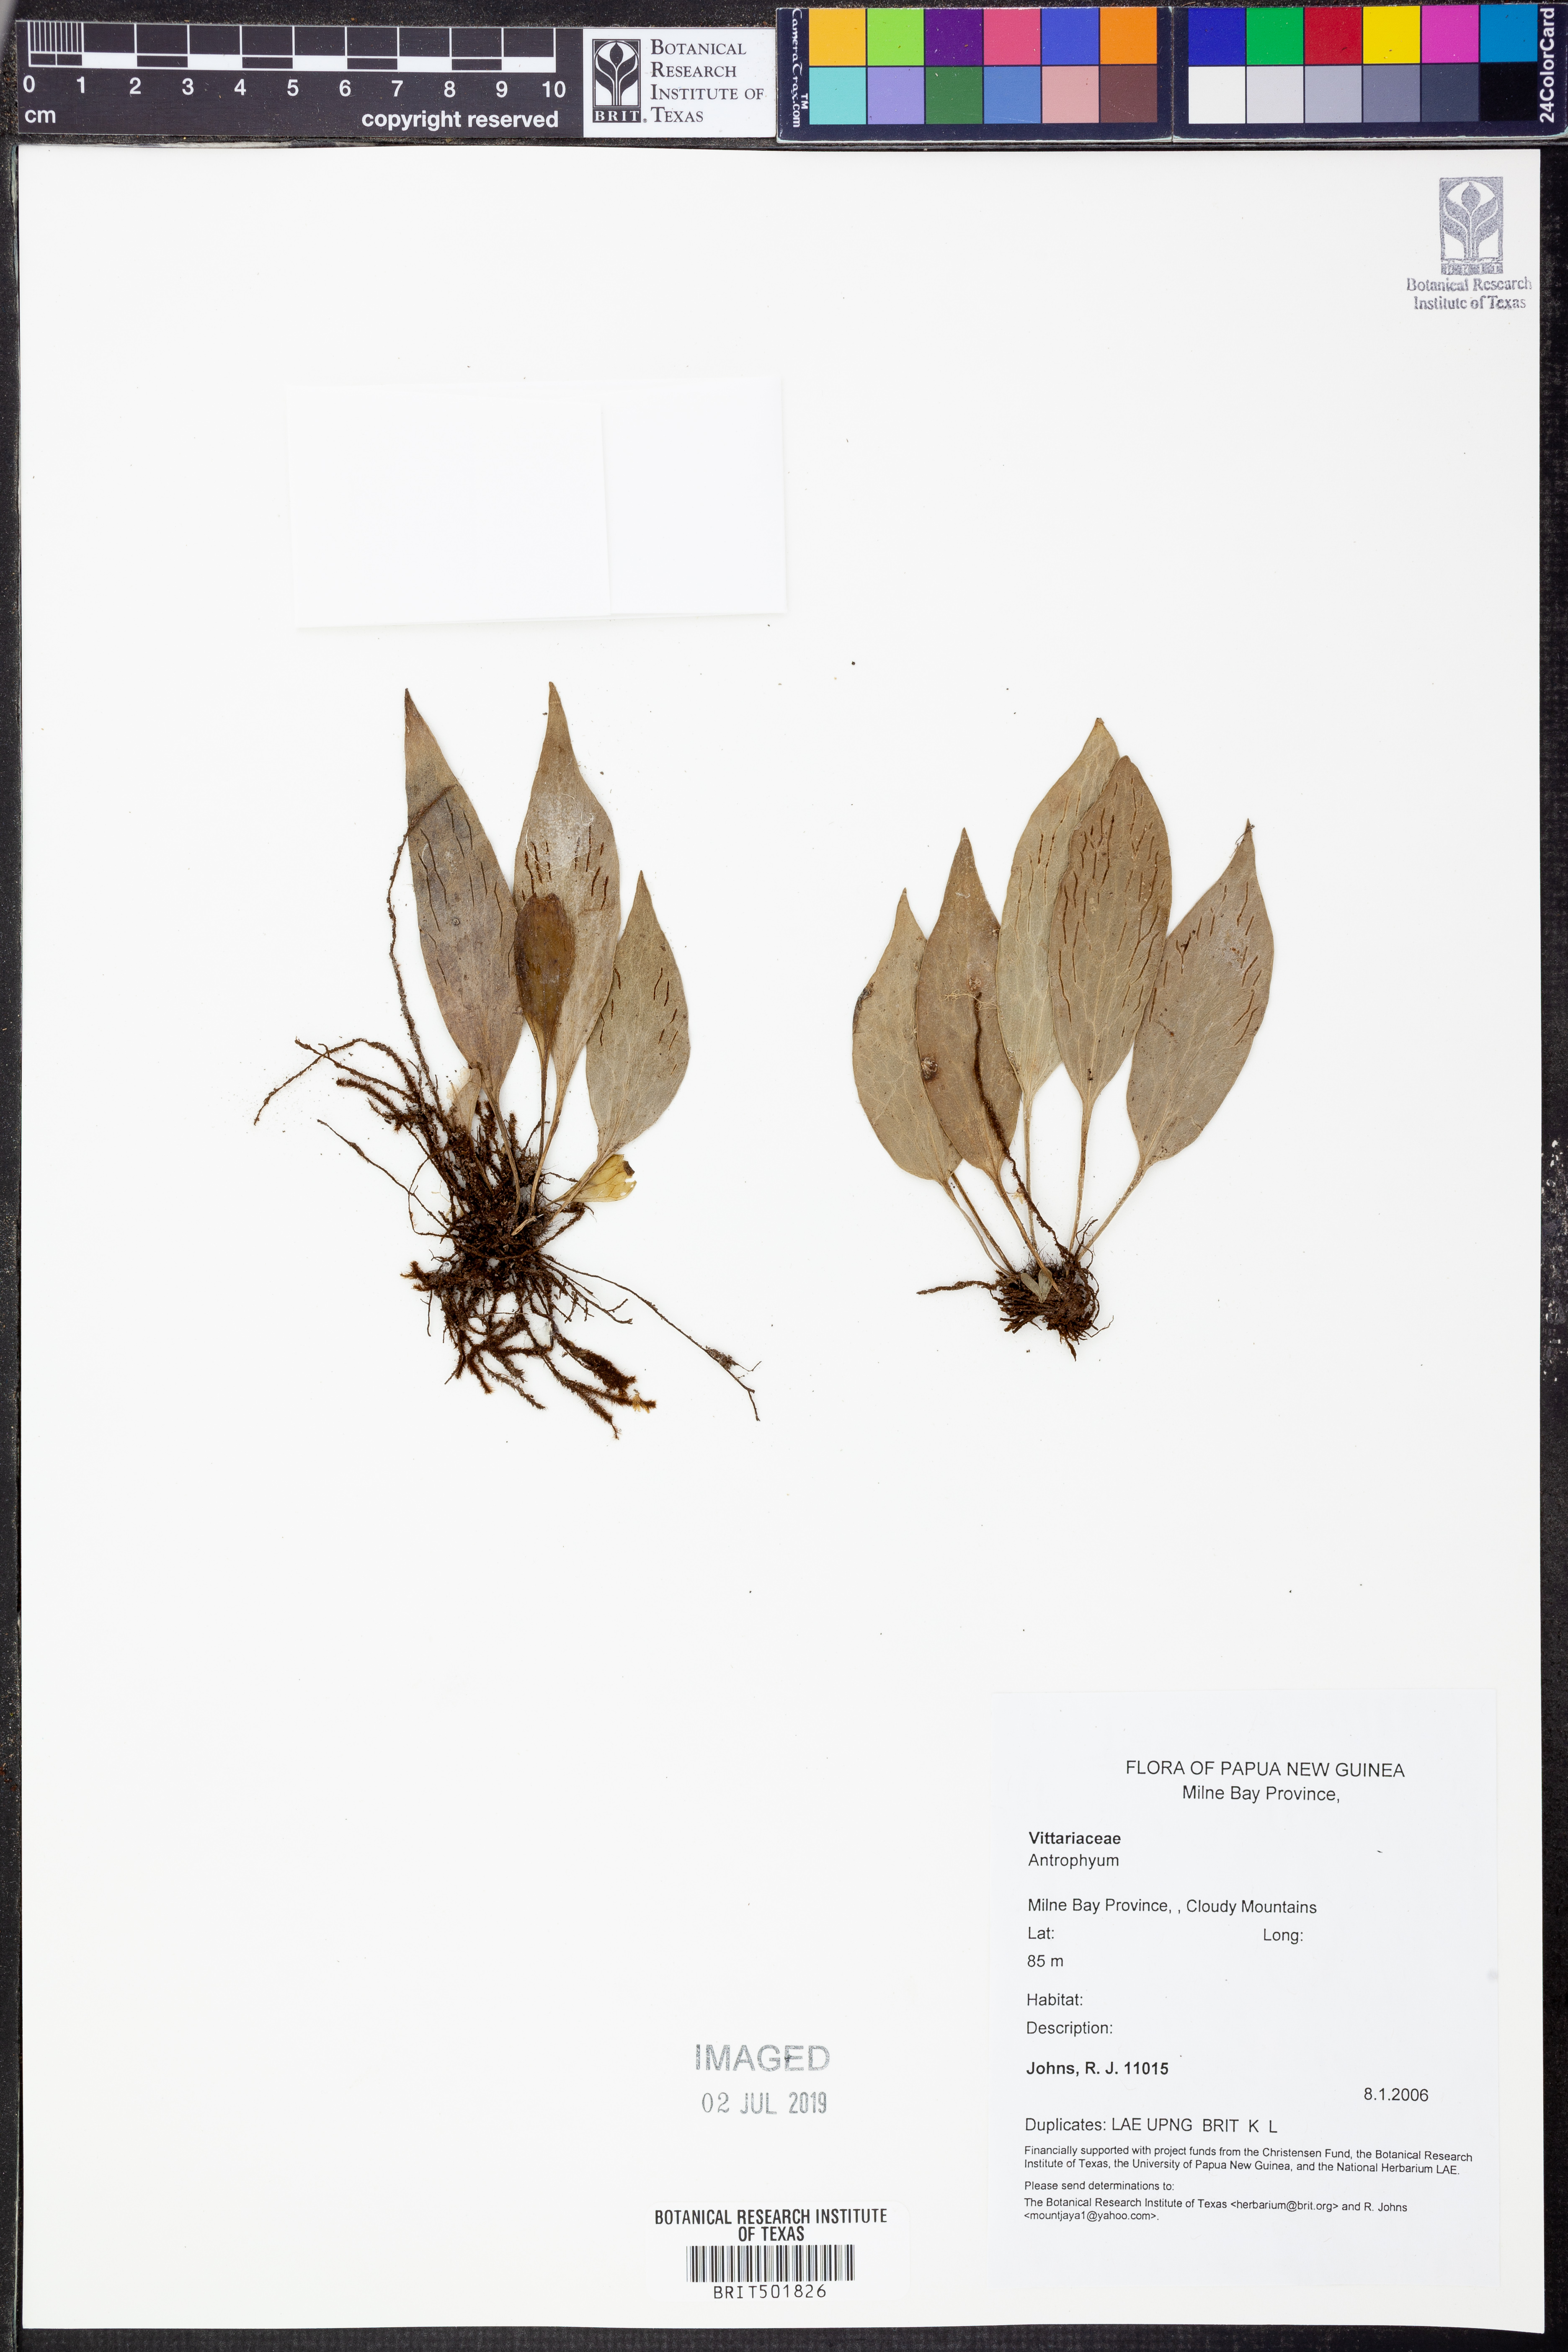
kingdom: Plantae
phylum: Tracheophyta
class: Polypodiopsida
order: Polypodiales
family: Pteridaceae
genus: Antrophyum
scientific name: Antrophyum
